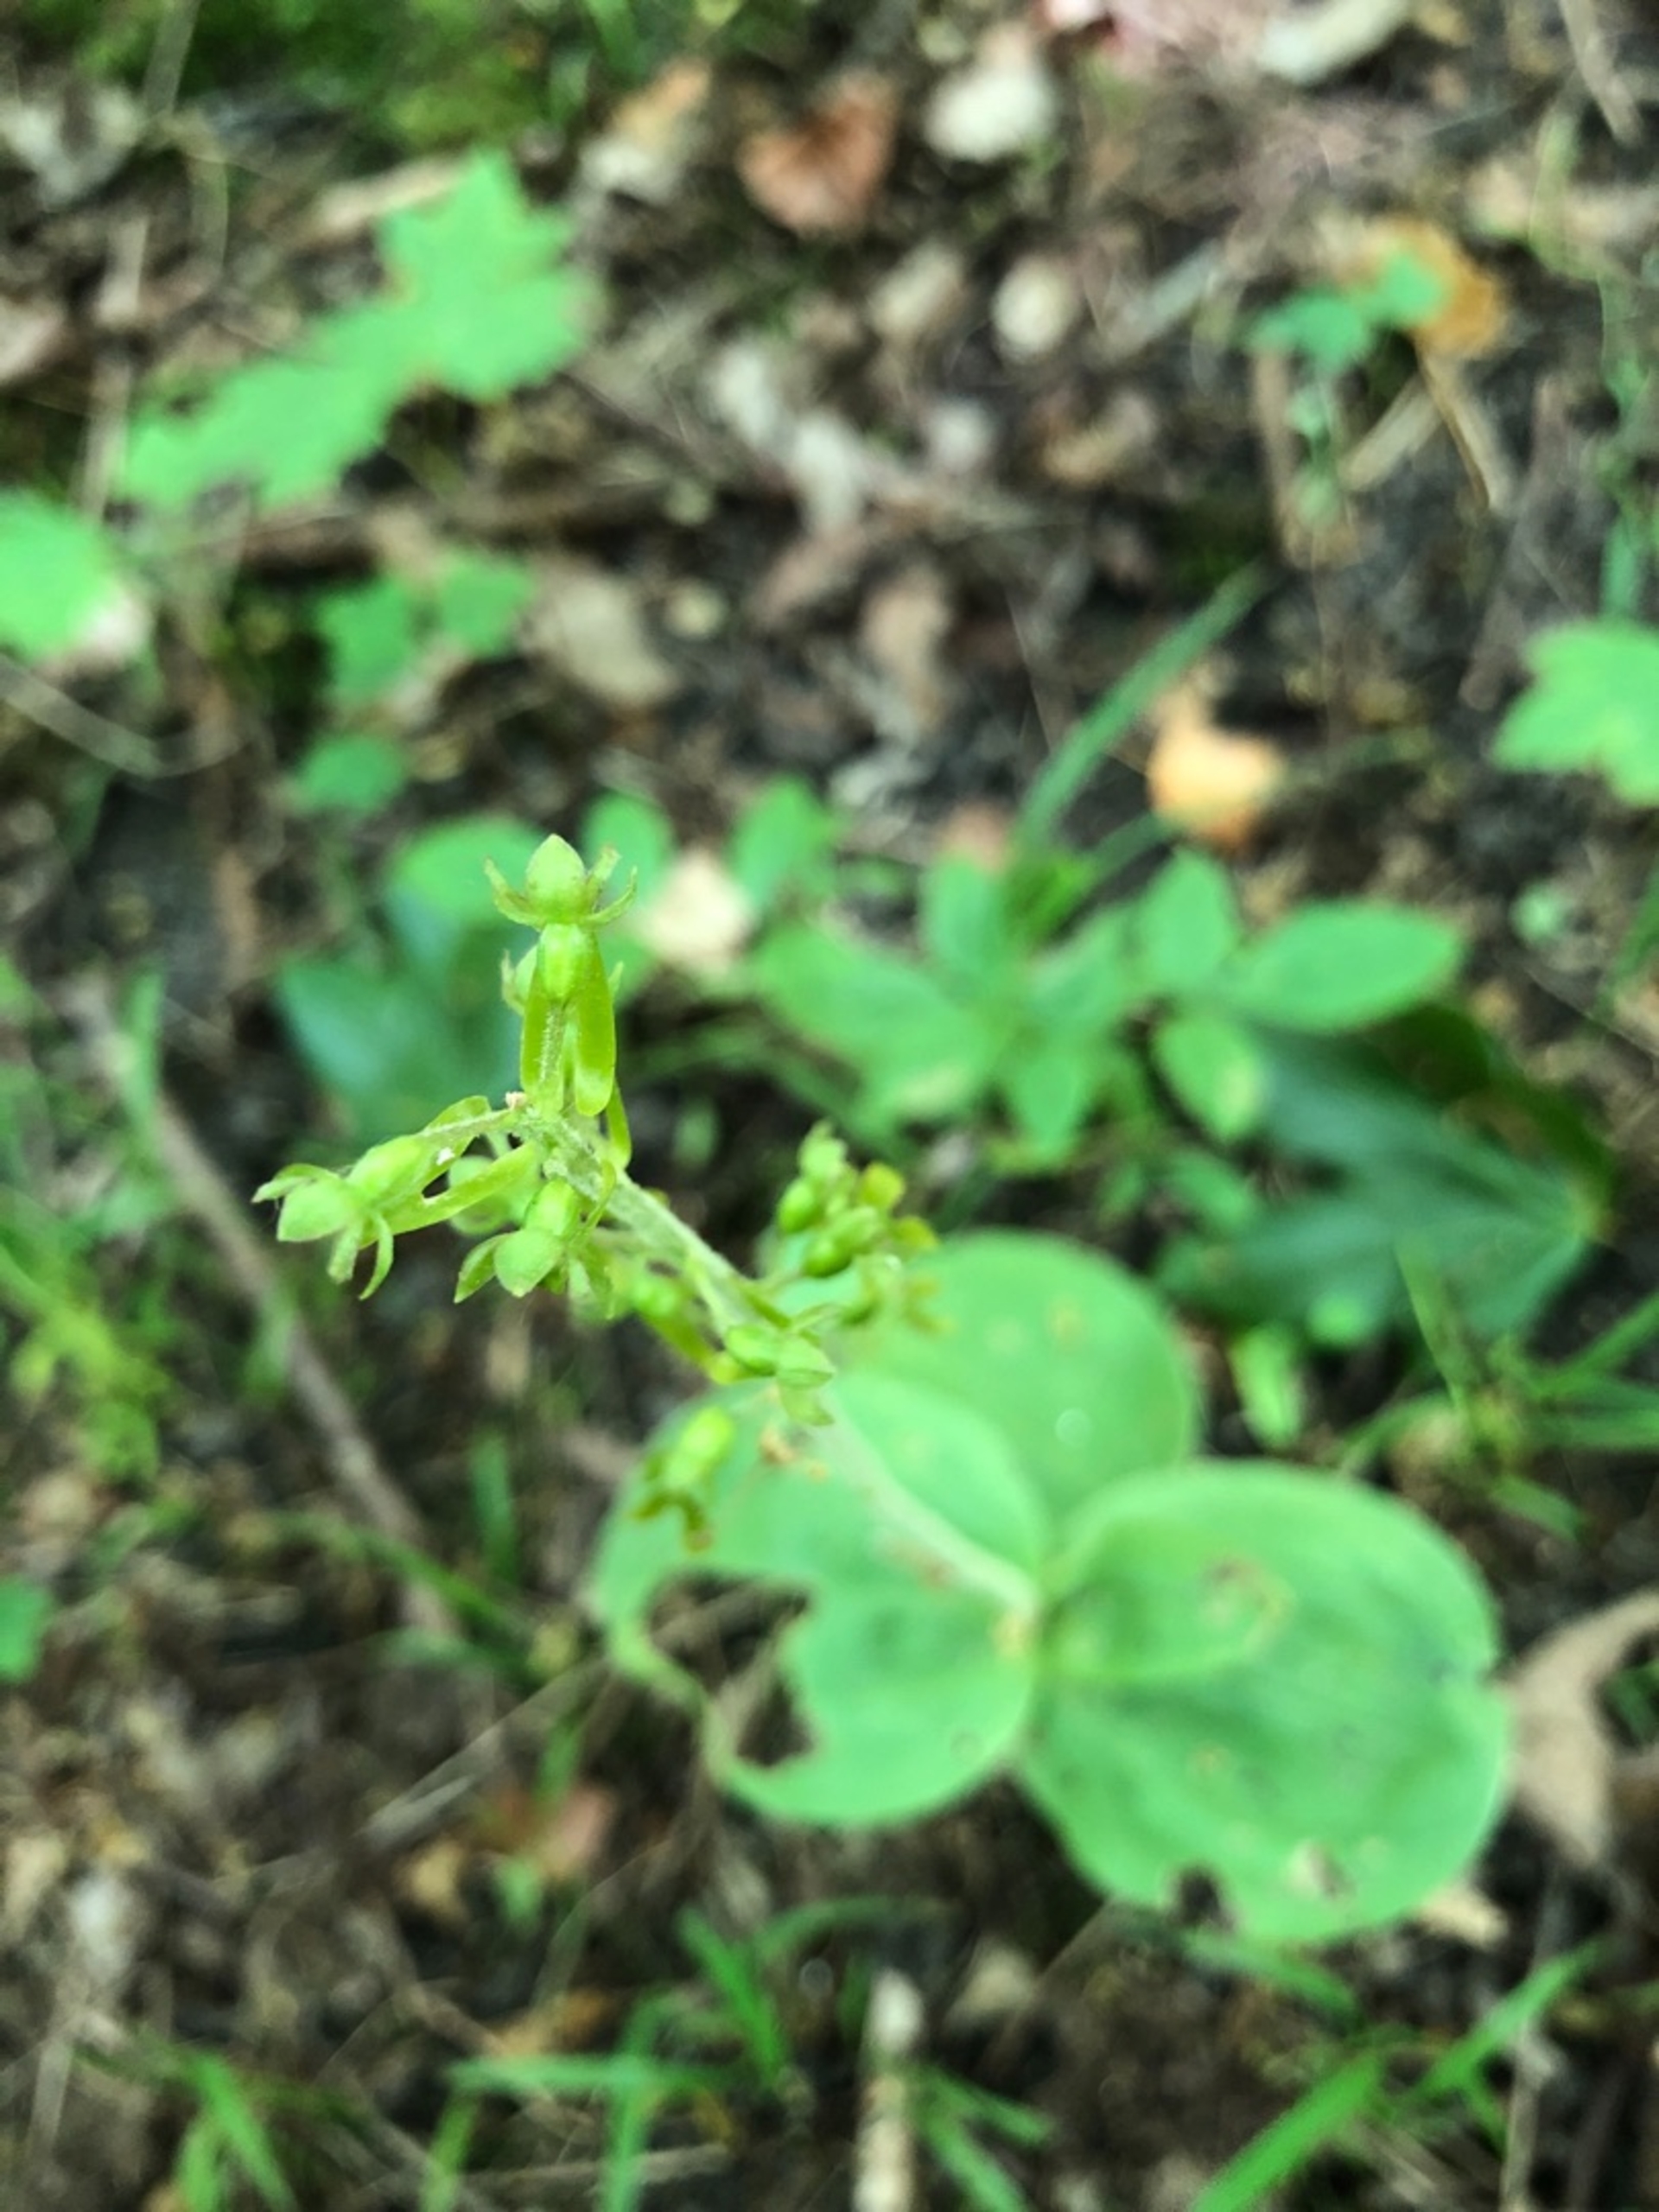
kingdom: Plantae
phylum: Tracheophyta
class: Liliopsida
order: Asparagales
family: Orchidaceae
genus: Neottia
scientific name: Neottia ovata
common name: Ægbladet fliglæbe
